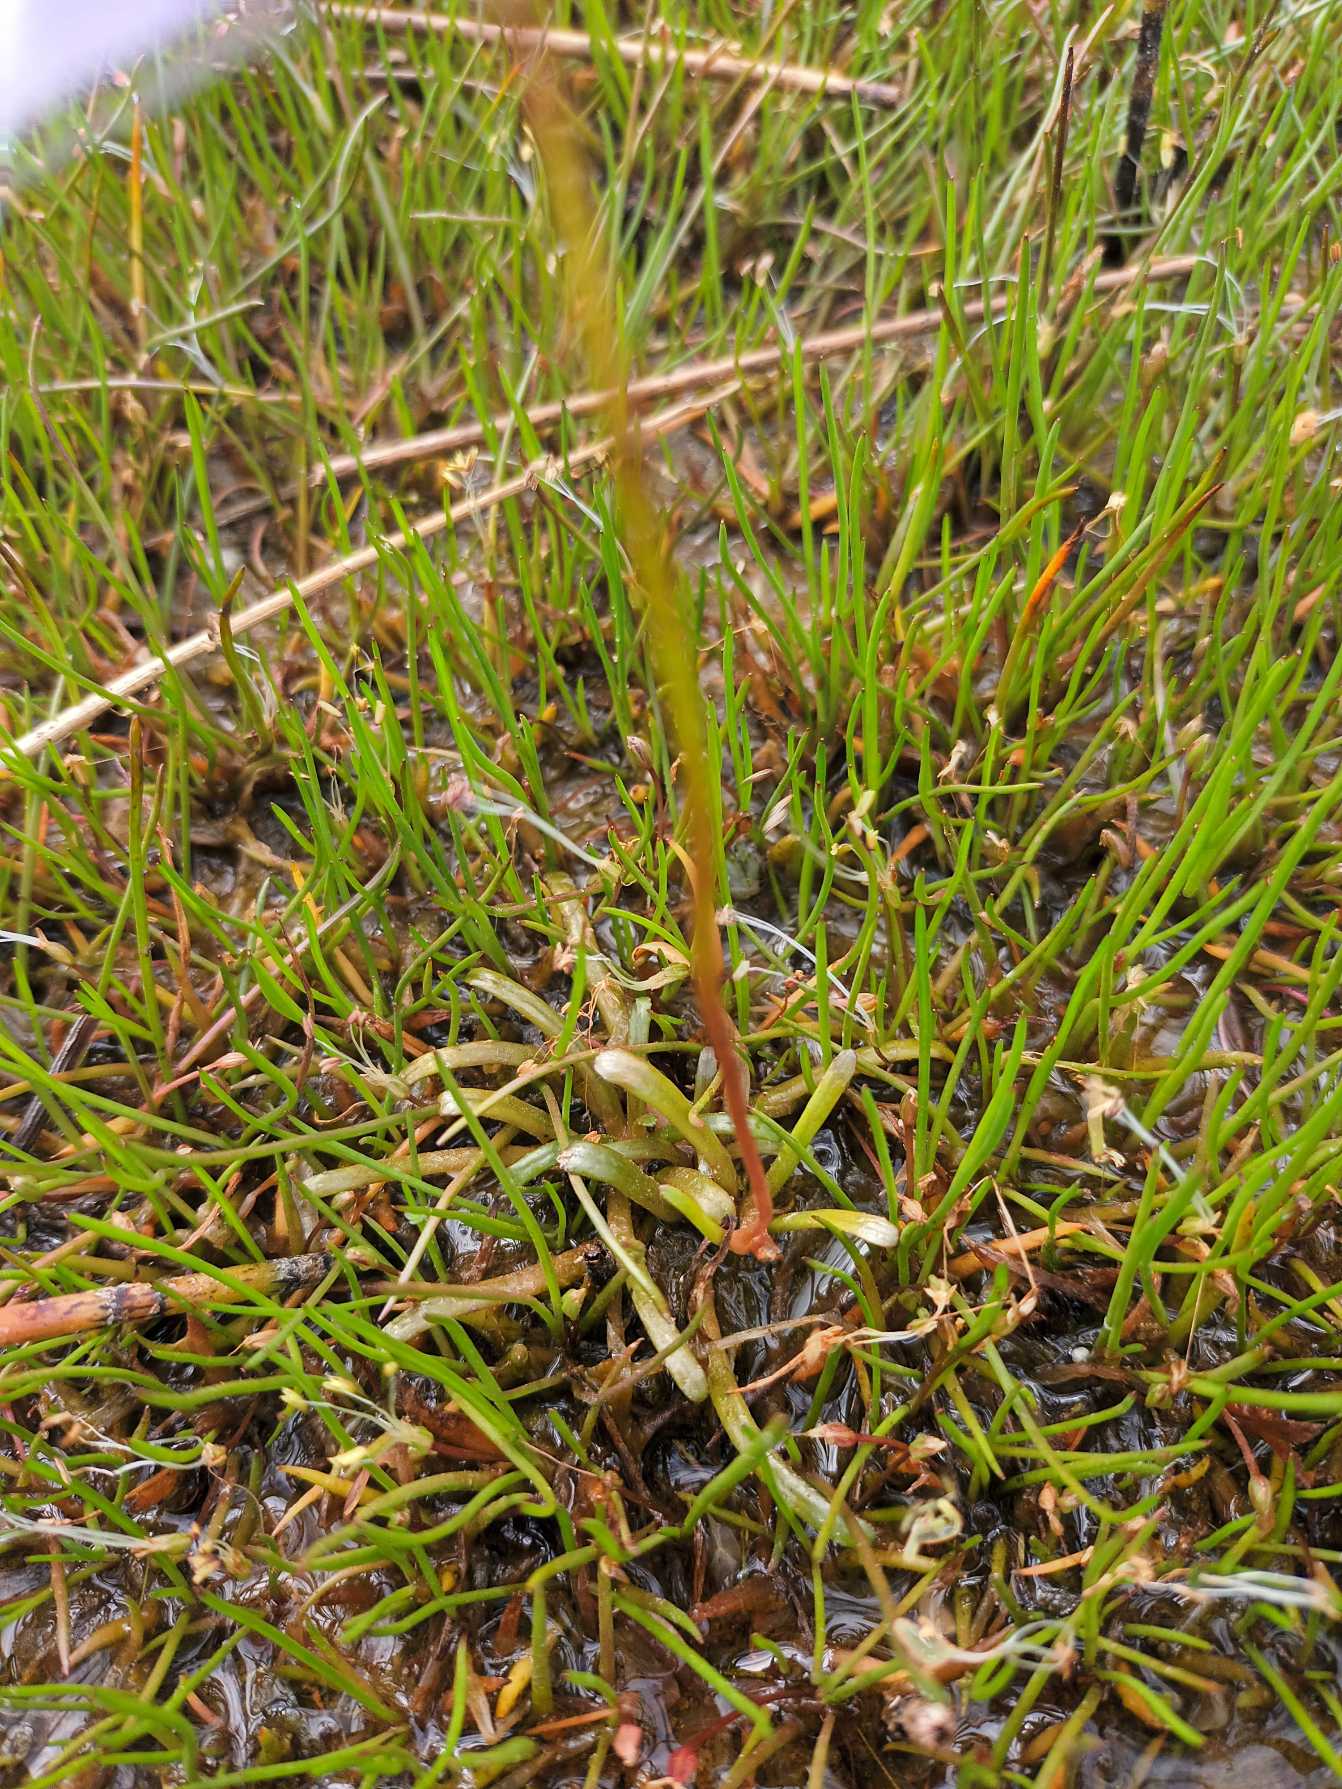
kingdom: Plantae
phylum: Tracheophyta
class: Magnoliopsida
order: Asterales
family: Campanulaceae
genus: Lobelia
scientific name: Lobelia dortmanna
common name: Tvepibet lobelie
